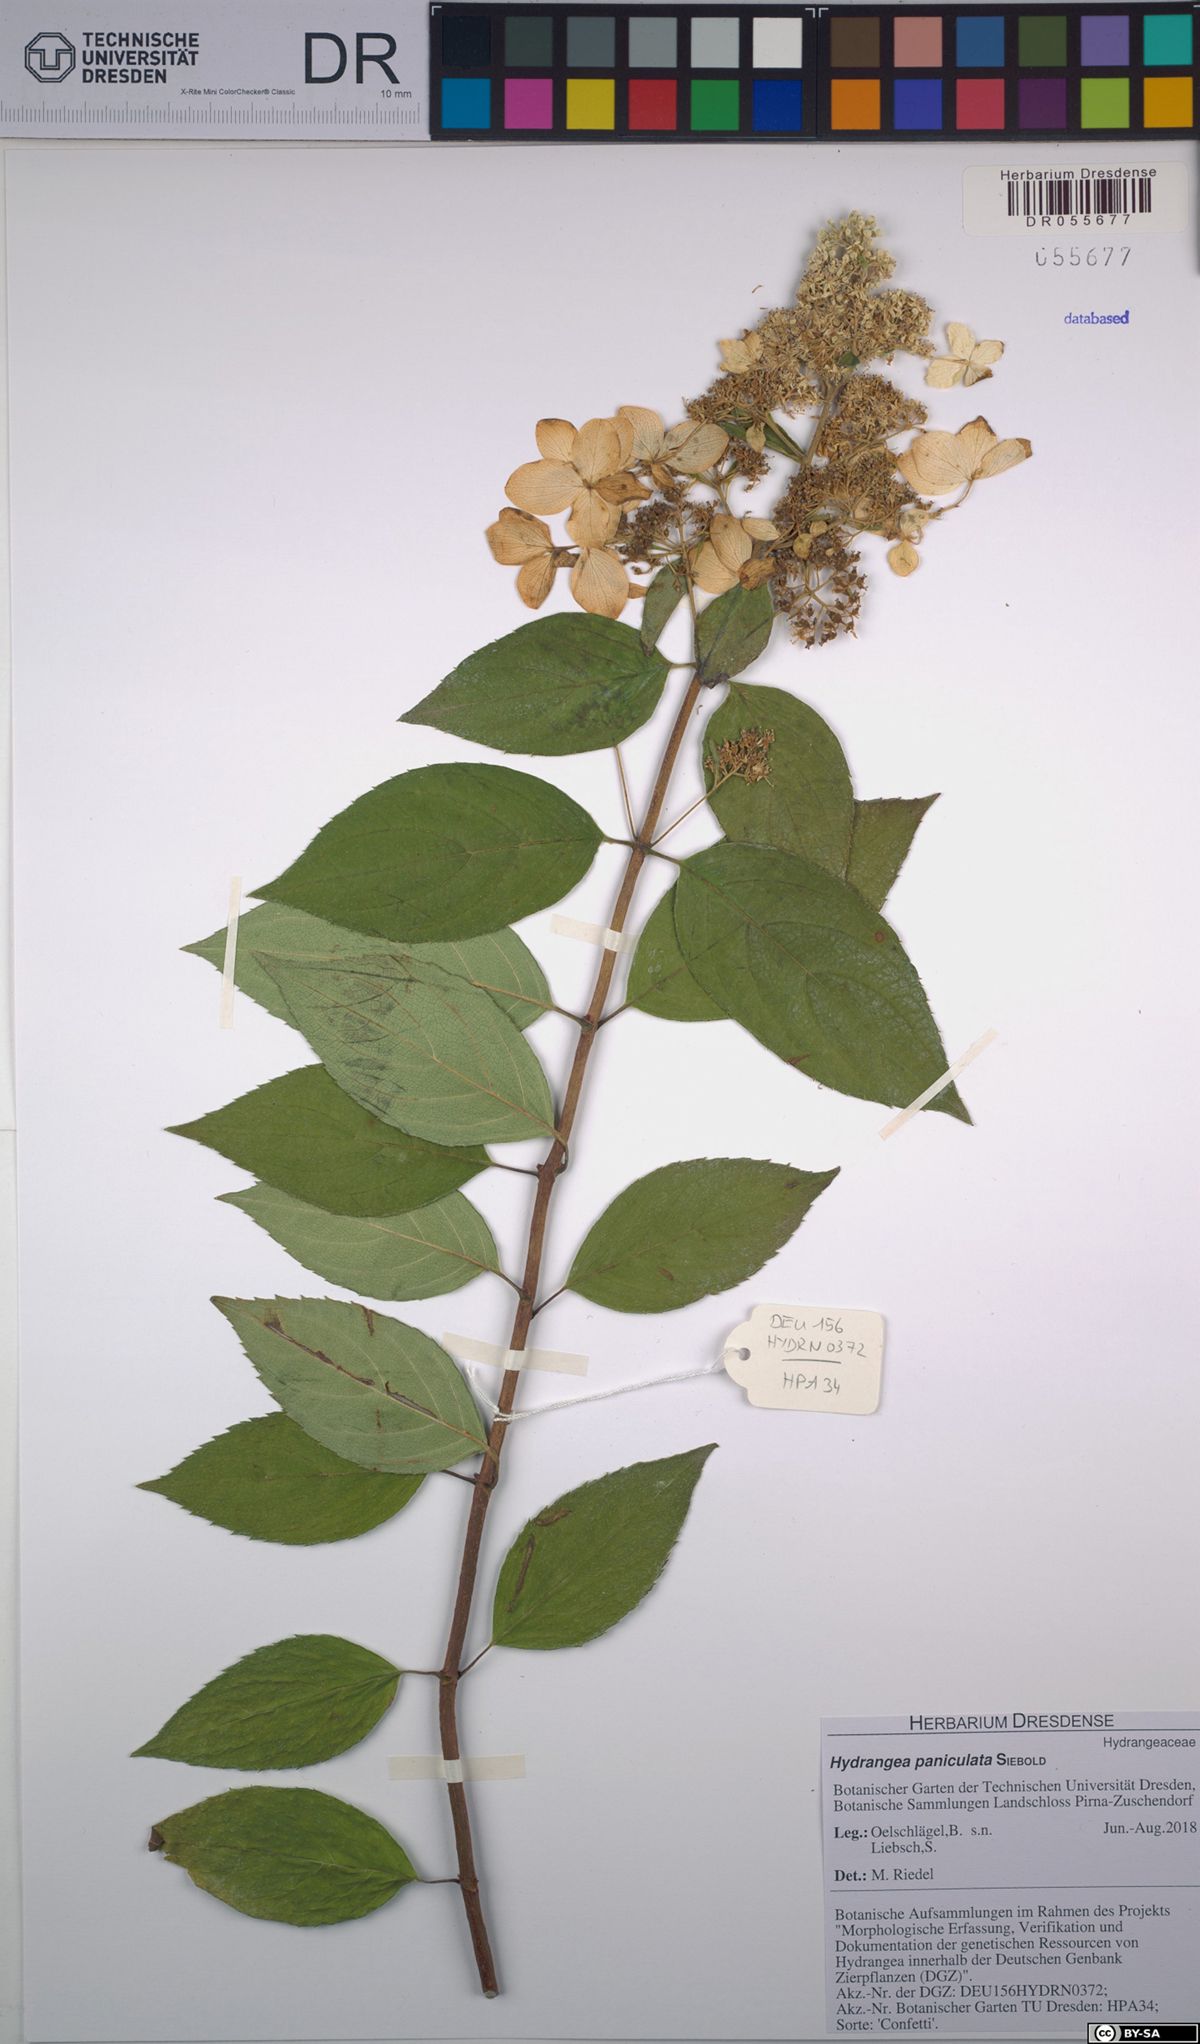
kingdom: Plantae
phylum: Tracheophyta
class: Magnoliopsida
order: Cornales
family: Hydrangeaceae
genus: Hydrangea
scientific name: Hydrangea paniculata
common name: Panicled hydrangea
